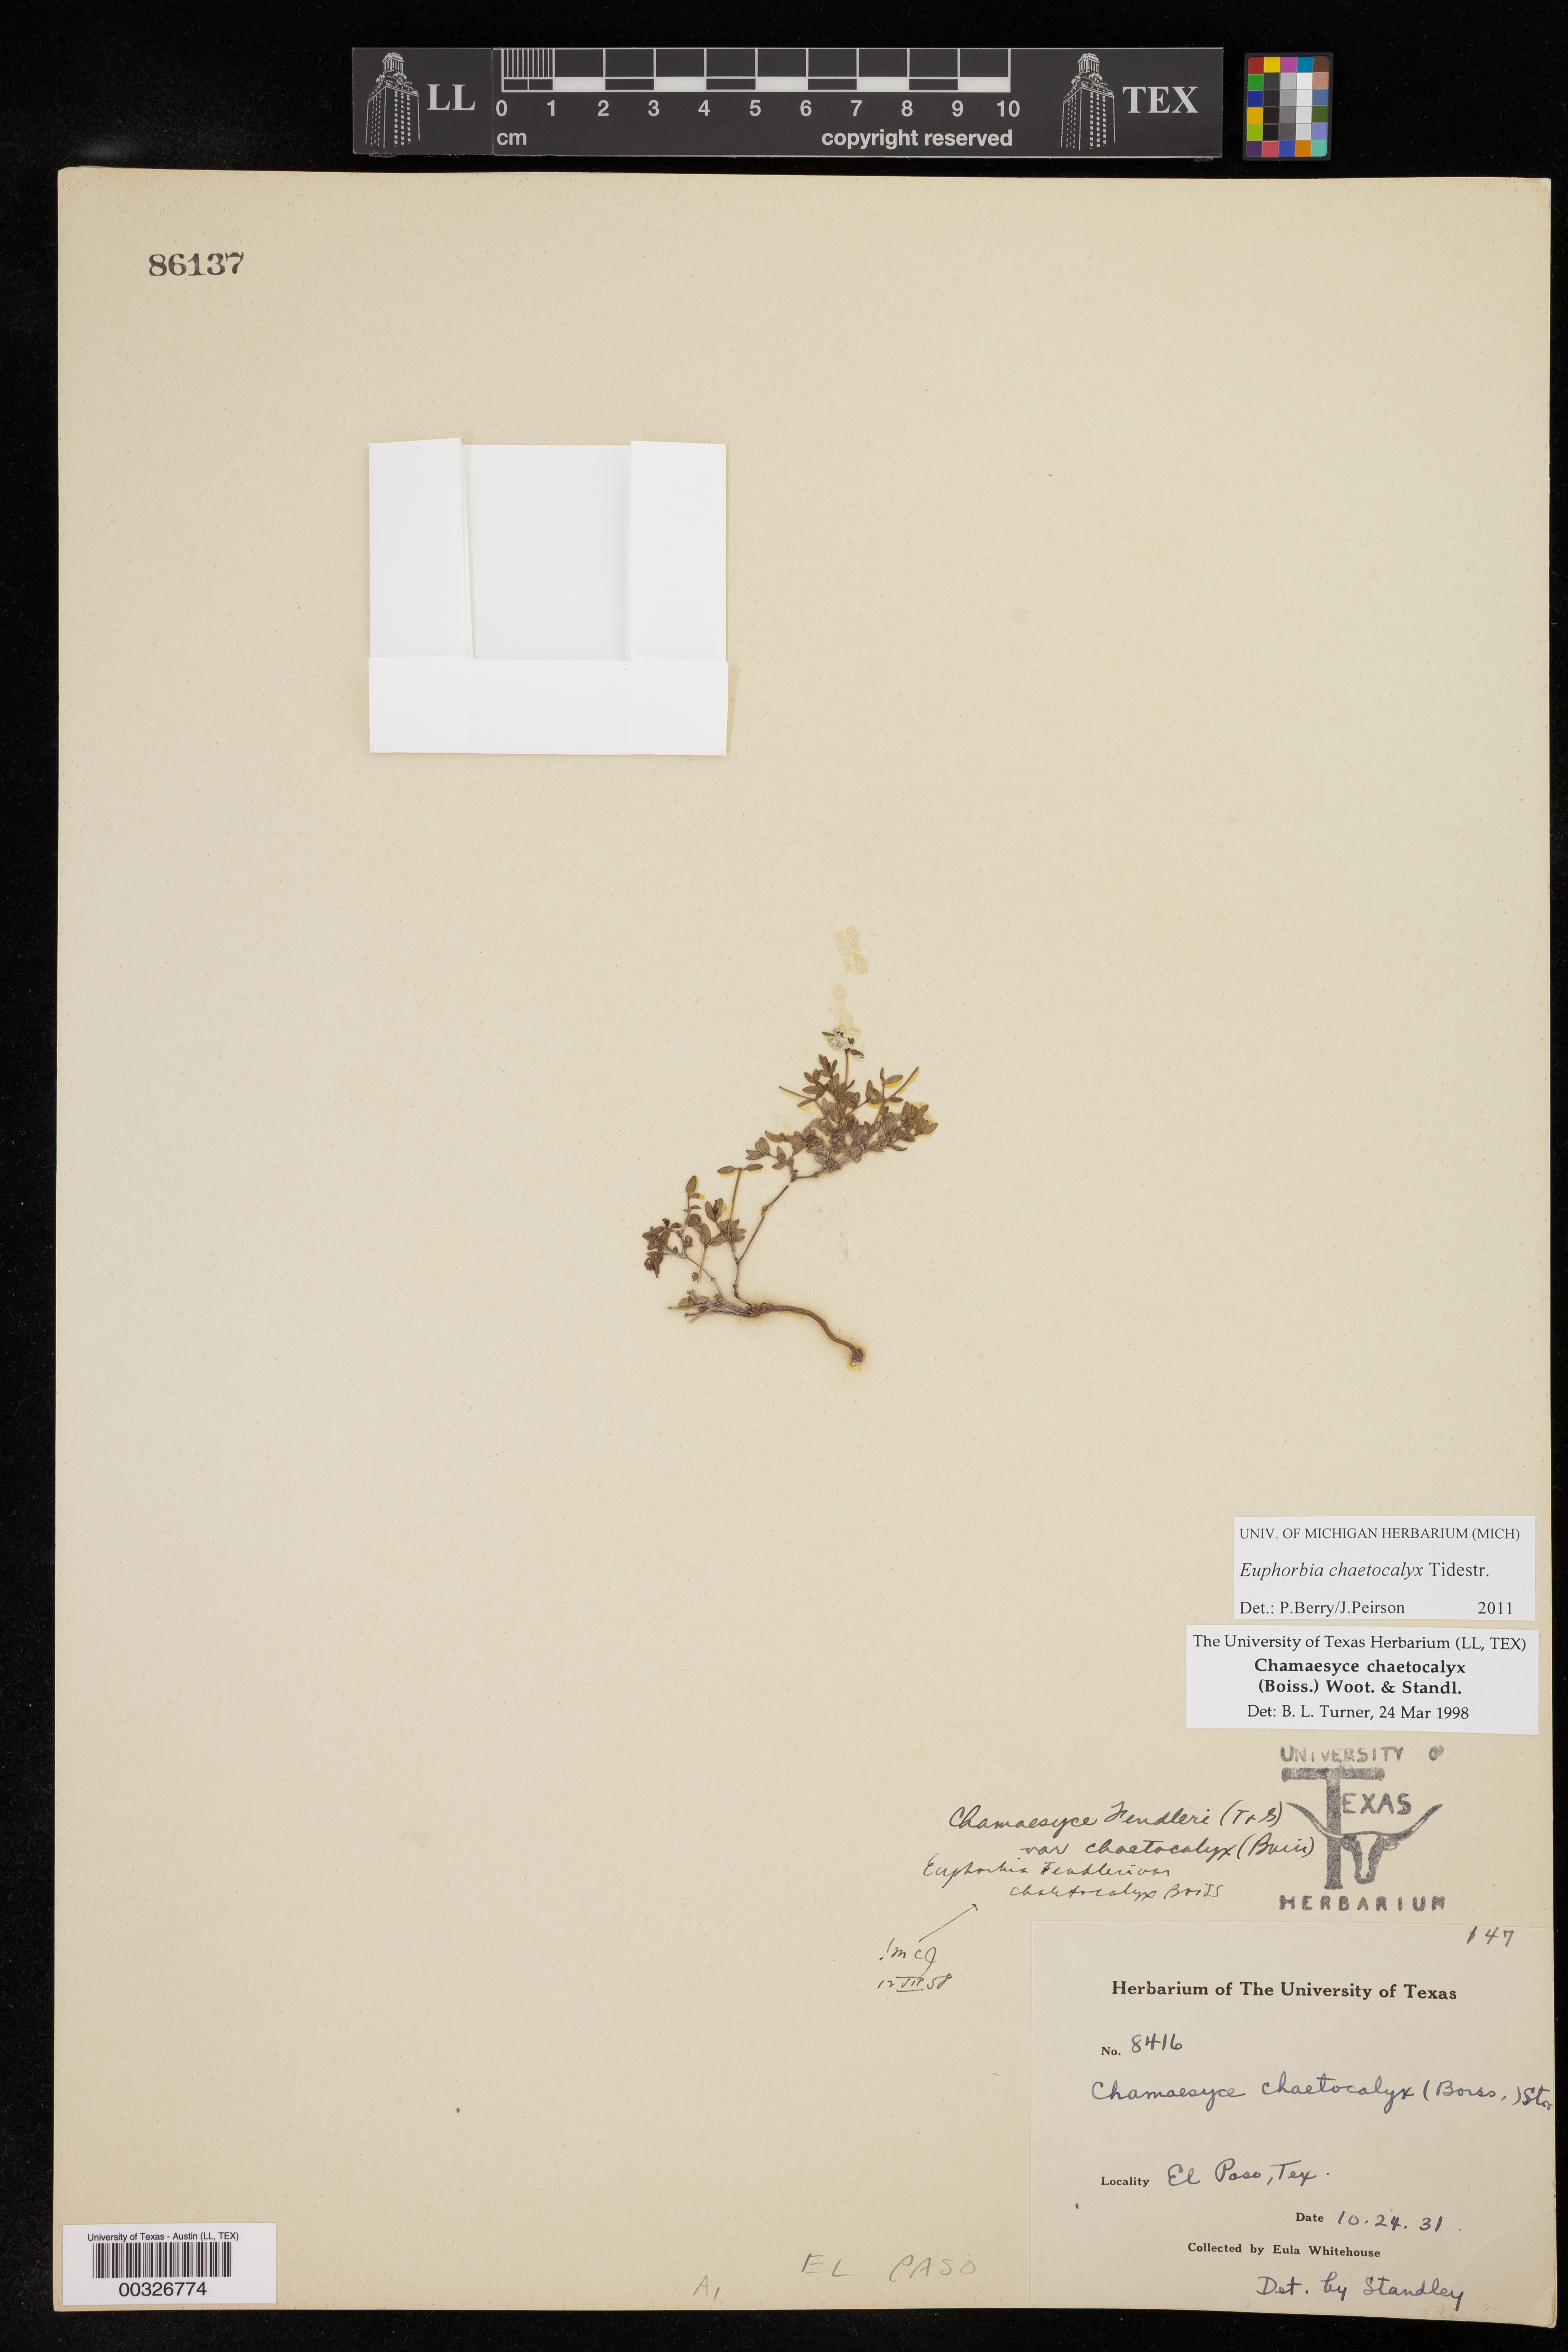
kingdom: Plantae
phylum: Tracheophyta
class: Magnoliopsida
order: Malpighiales
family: Euphorbiaceae
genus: Euphorbia
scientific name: Euphorbia chaetocalyx
